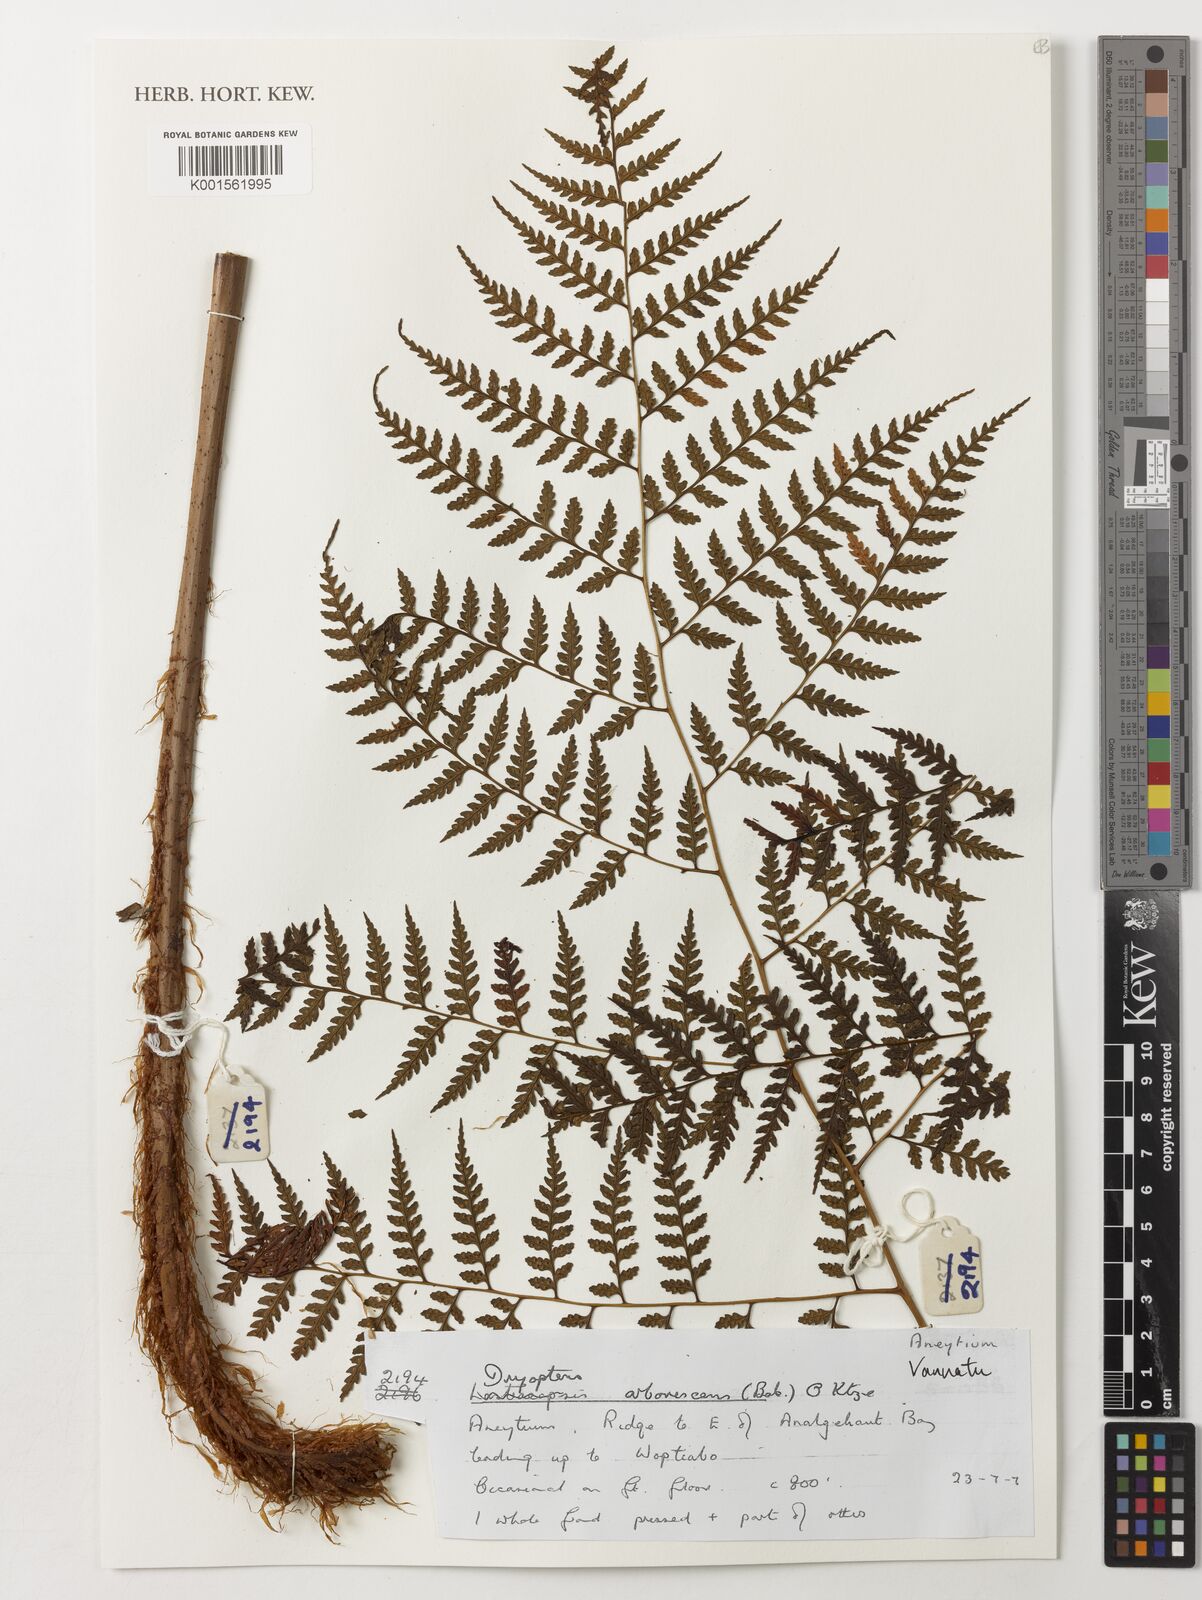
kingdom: Plantae
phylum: Tracheophyta
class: Polypodiopsida
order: Polypodiales
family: Dryopteridaceae
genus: Dryopteris
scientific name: Dryopteris arborescens
